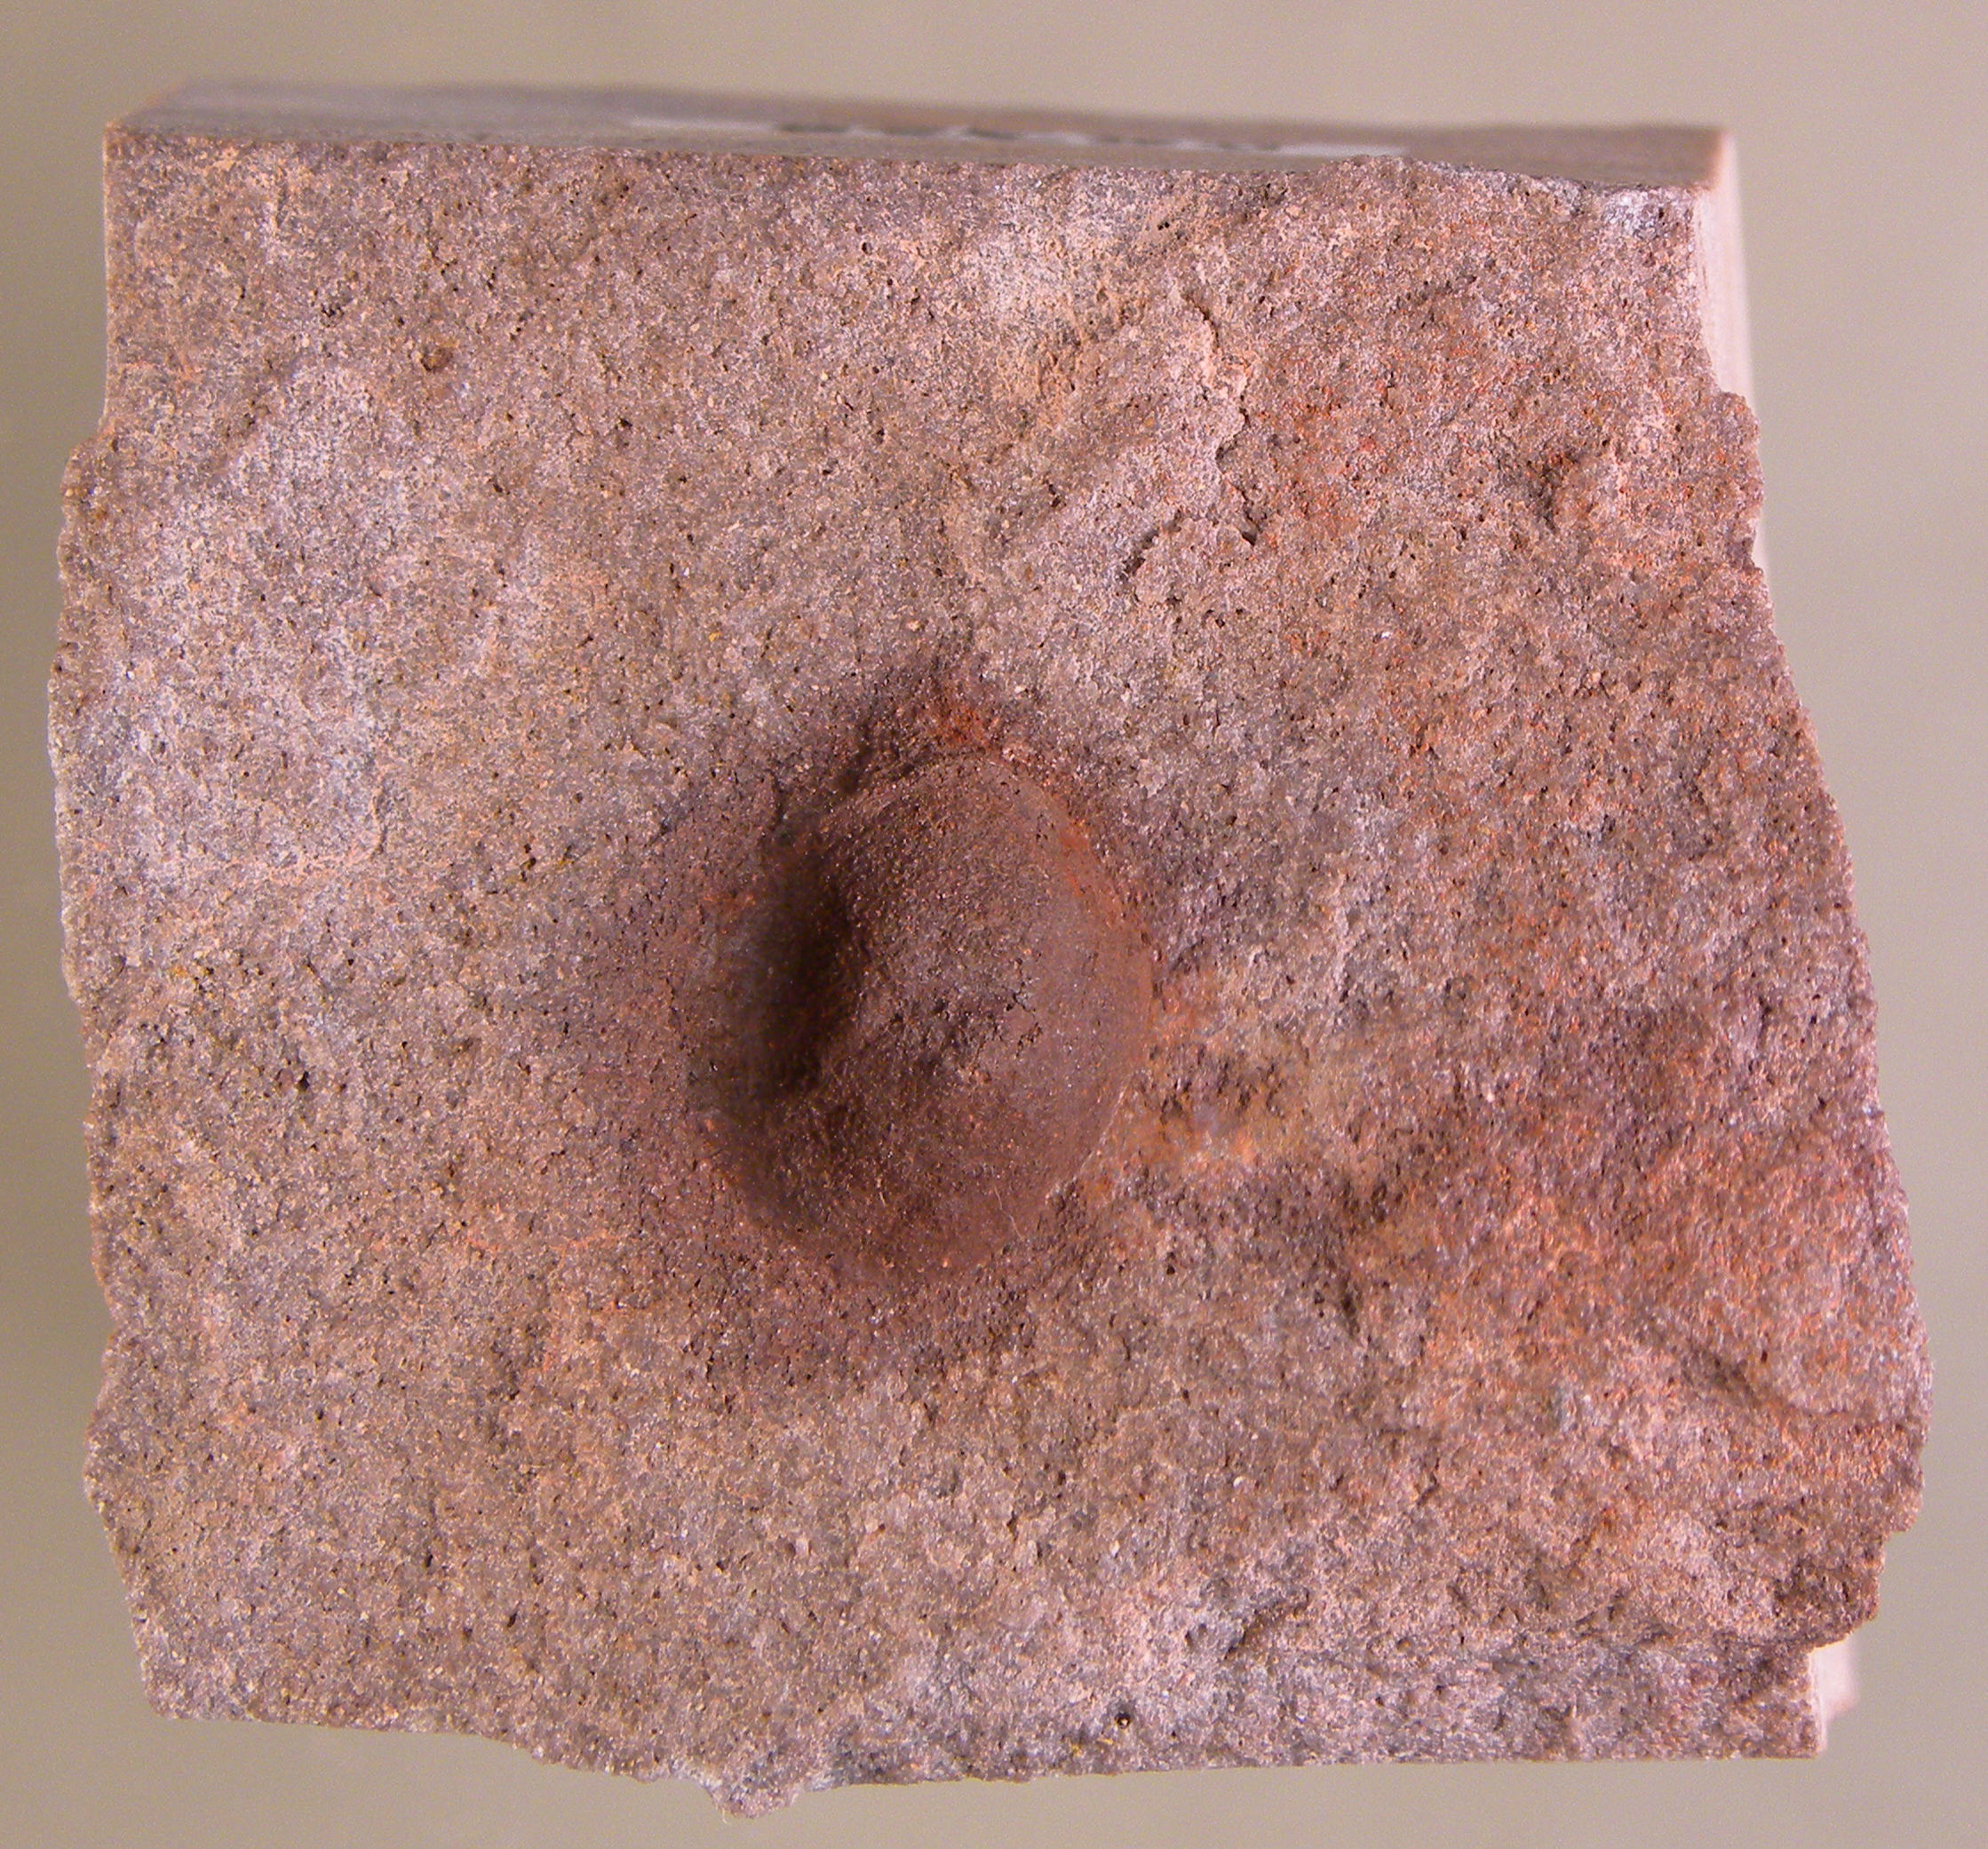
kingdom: Animalia
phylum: Brachiopoda
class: Craniata
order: Craniida
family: Craniidae
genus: Petrocrania
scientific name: Petrocrania
